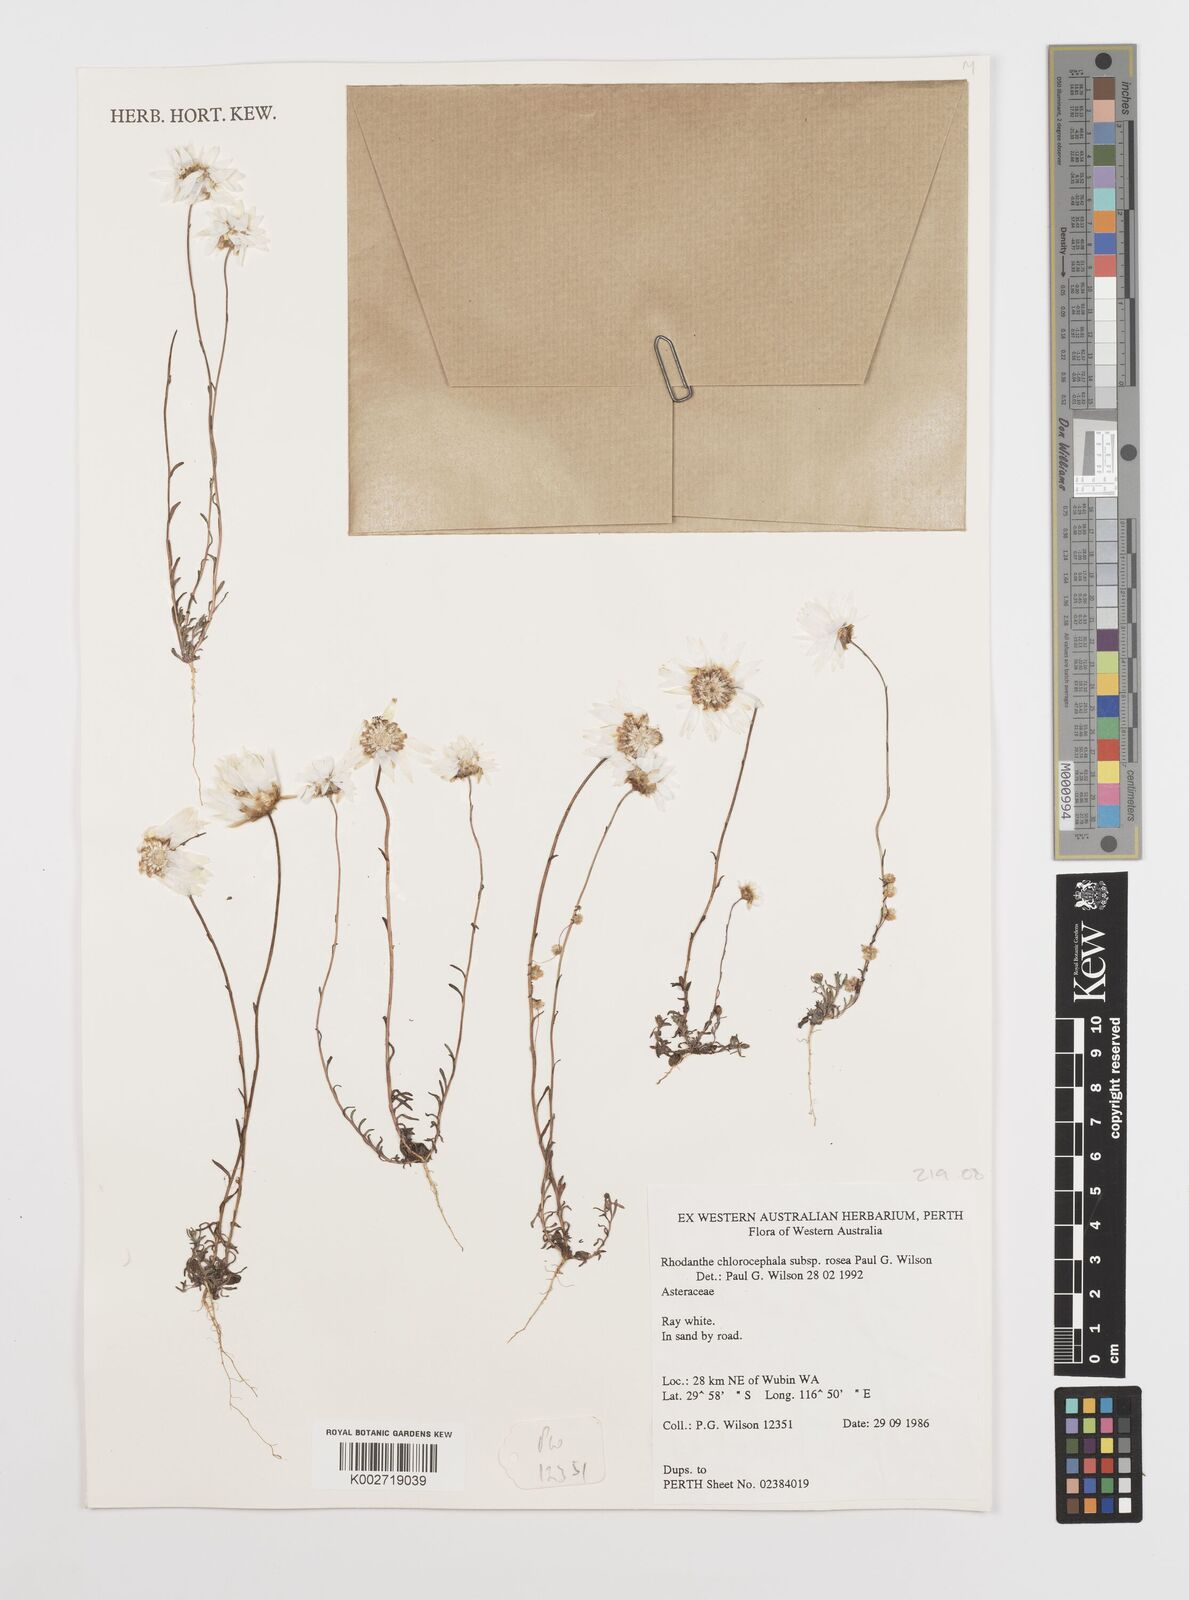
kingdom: Plantae
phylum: Tracheophyta
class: Magnoliopsida
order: Asterales
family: Asteraceae
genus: Rhodanthe
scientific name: Rhodanthe chlorocephala
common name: Rosy sunray
